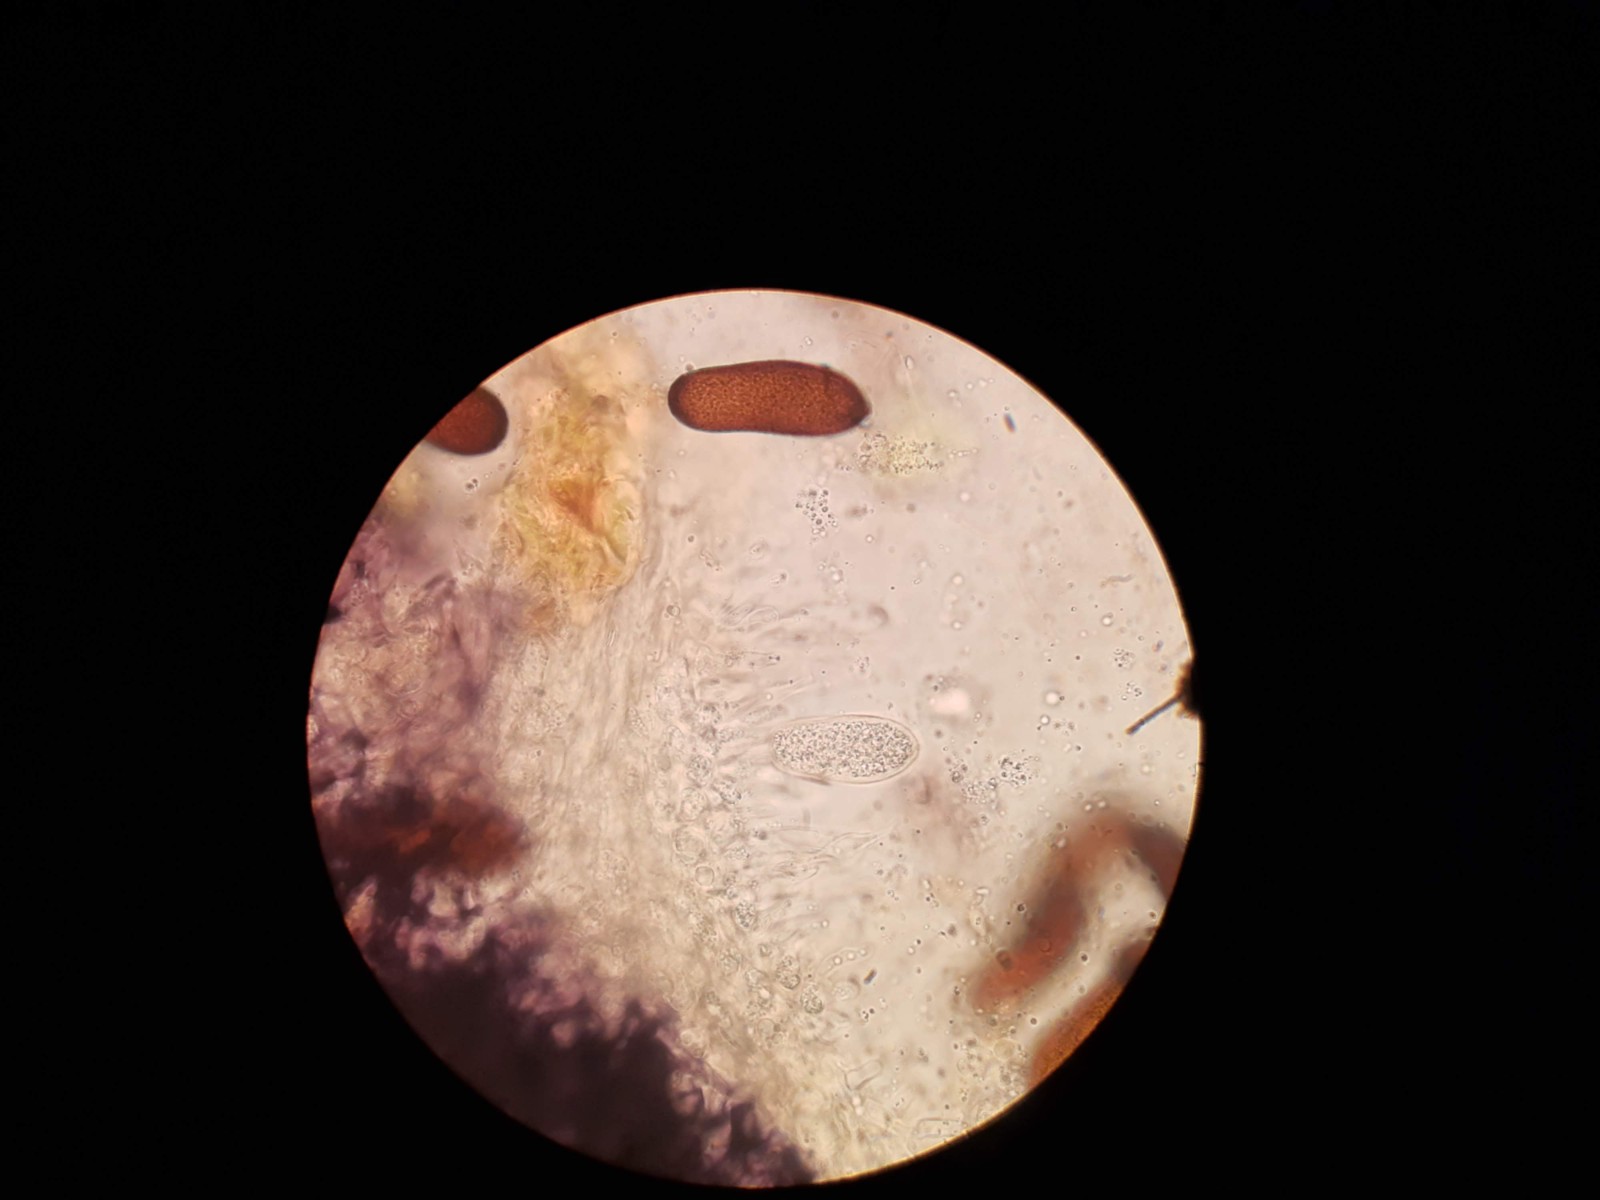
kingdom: Fungi
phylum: Ascomycota
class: Dothideomycetes
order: Botryosphaeriales
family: Botryosphaeriaceae
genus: Sphaeropsis
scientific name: Sphaeropsis sapinea
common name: Sphaeropsis blight
